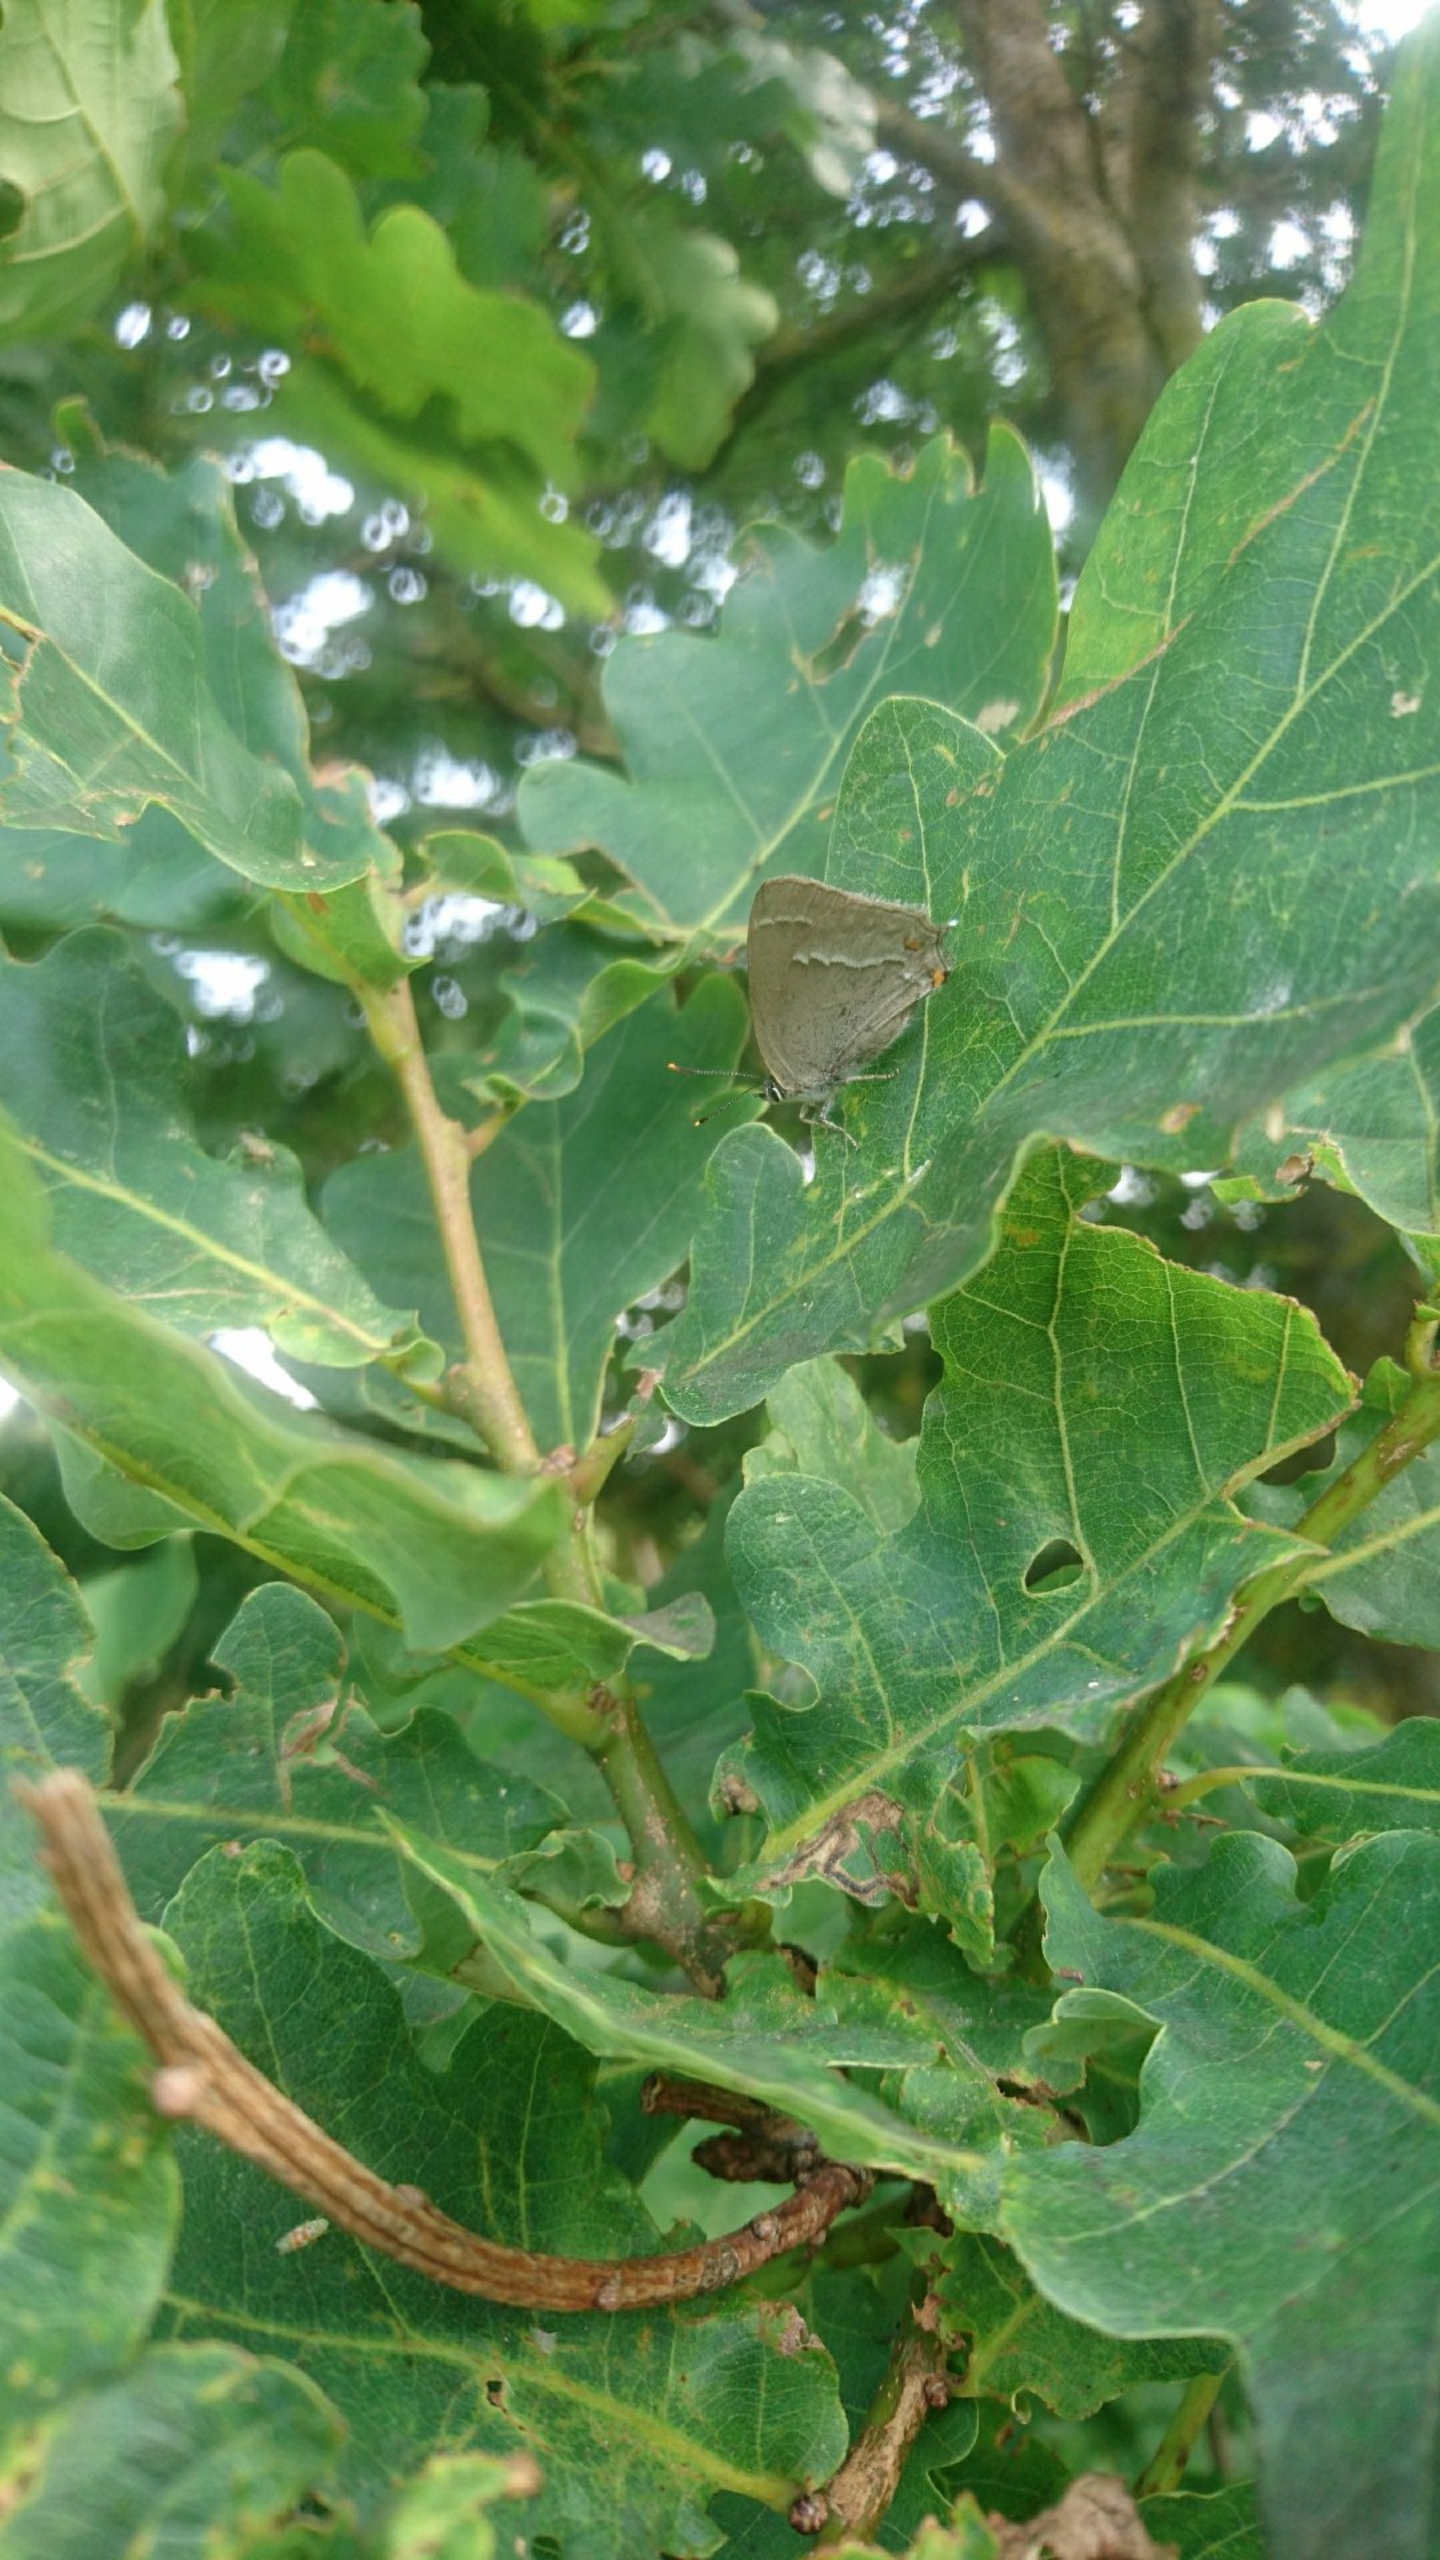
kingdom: Animalia
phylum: Arthropoda
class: Insecta
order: Lepidoptera
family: Lycaenidae
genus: Quercusia
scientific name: Quercusia quercus
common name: Blåhale
